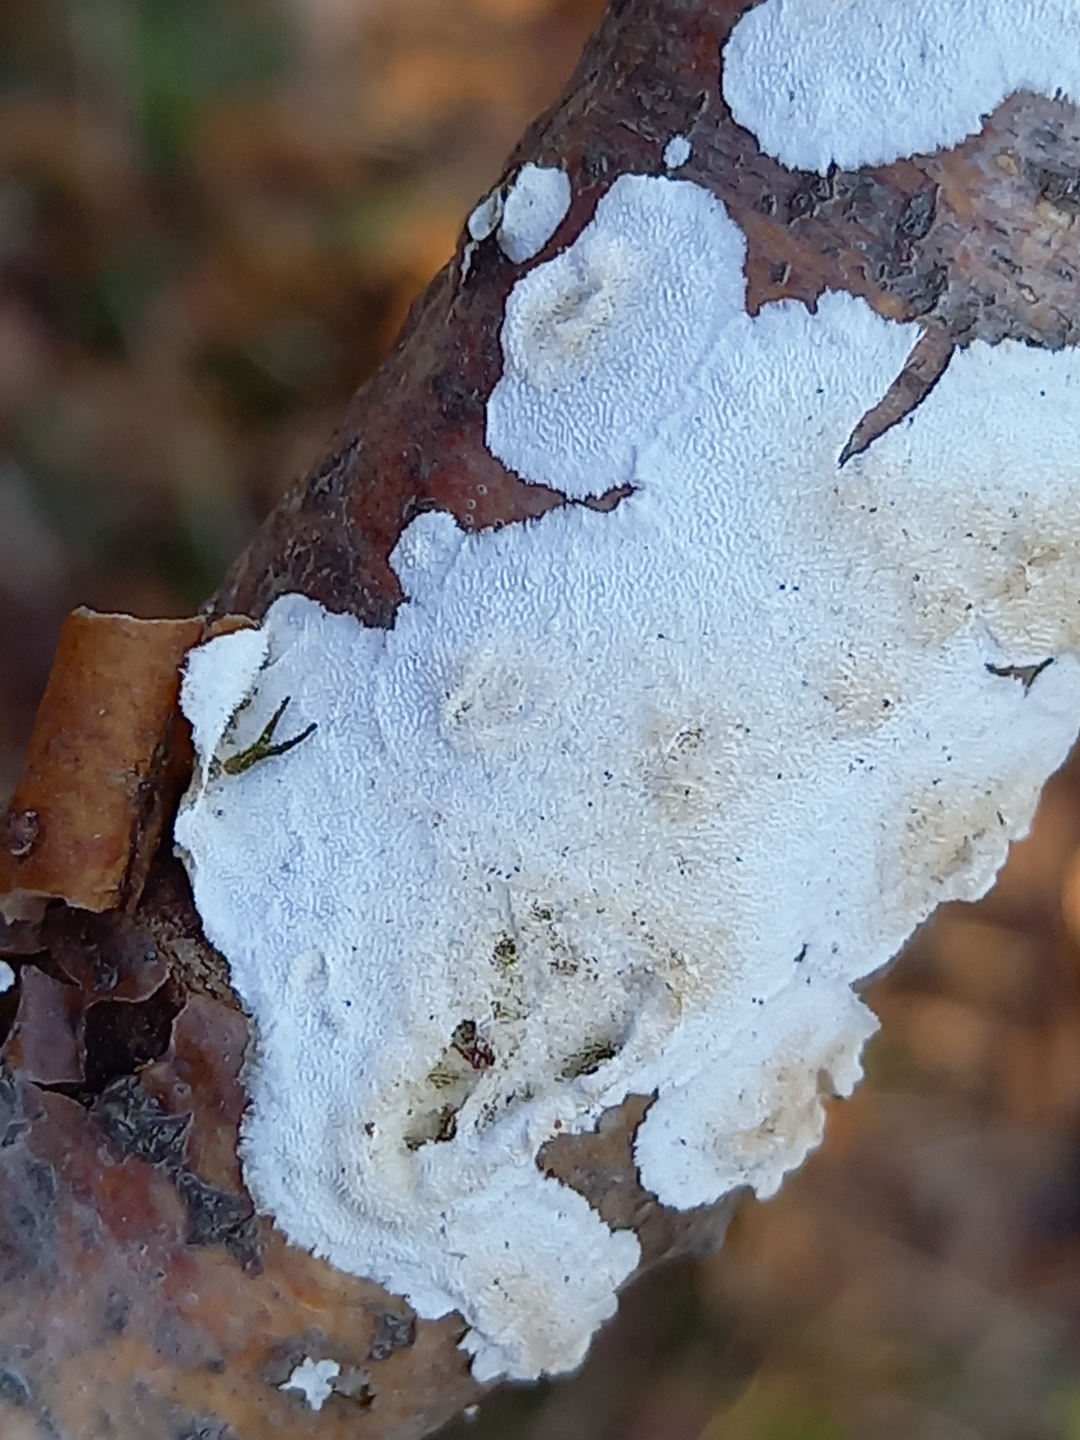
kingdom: Fungi
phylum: Basidiomycota
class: Agaricomycetes
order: Polyporales
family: Irpicaceae
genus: Byssomerulius
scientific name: Byssomerulius corium
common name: læder-åresvamp
